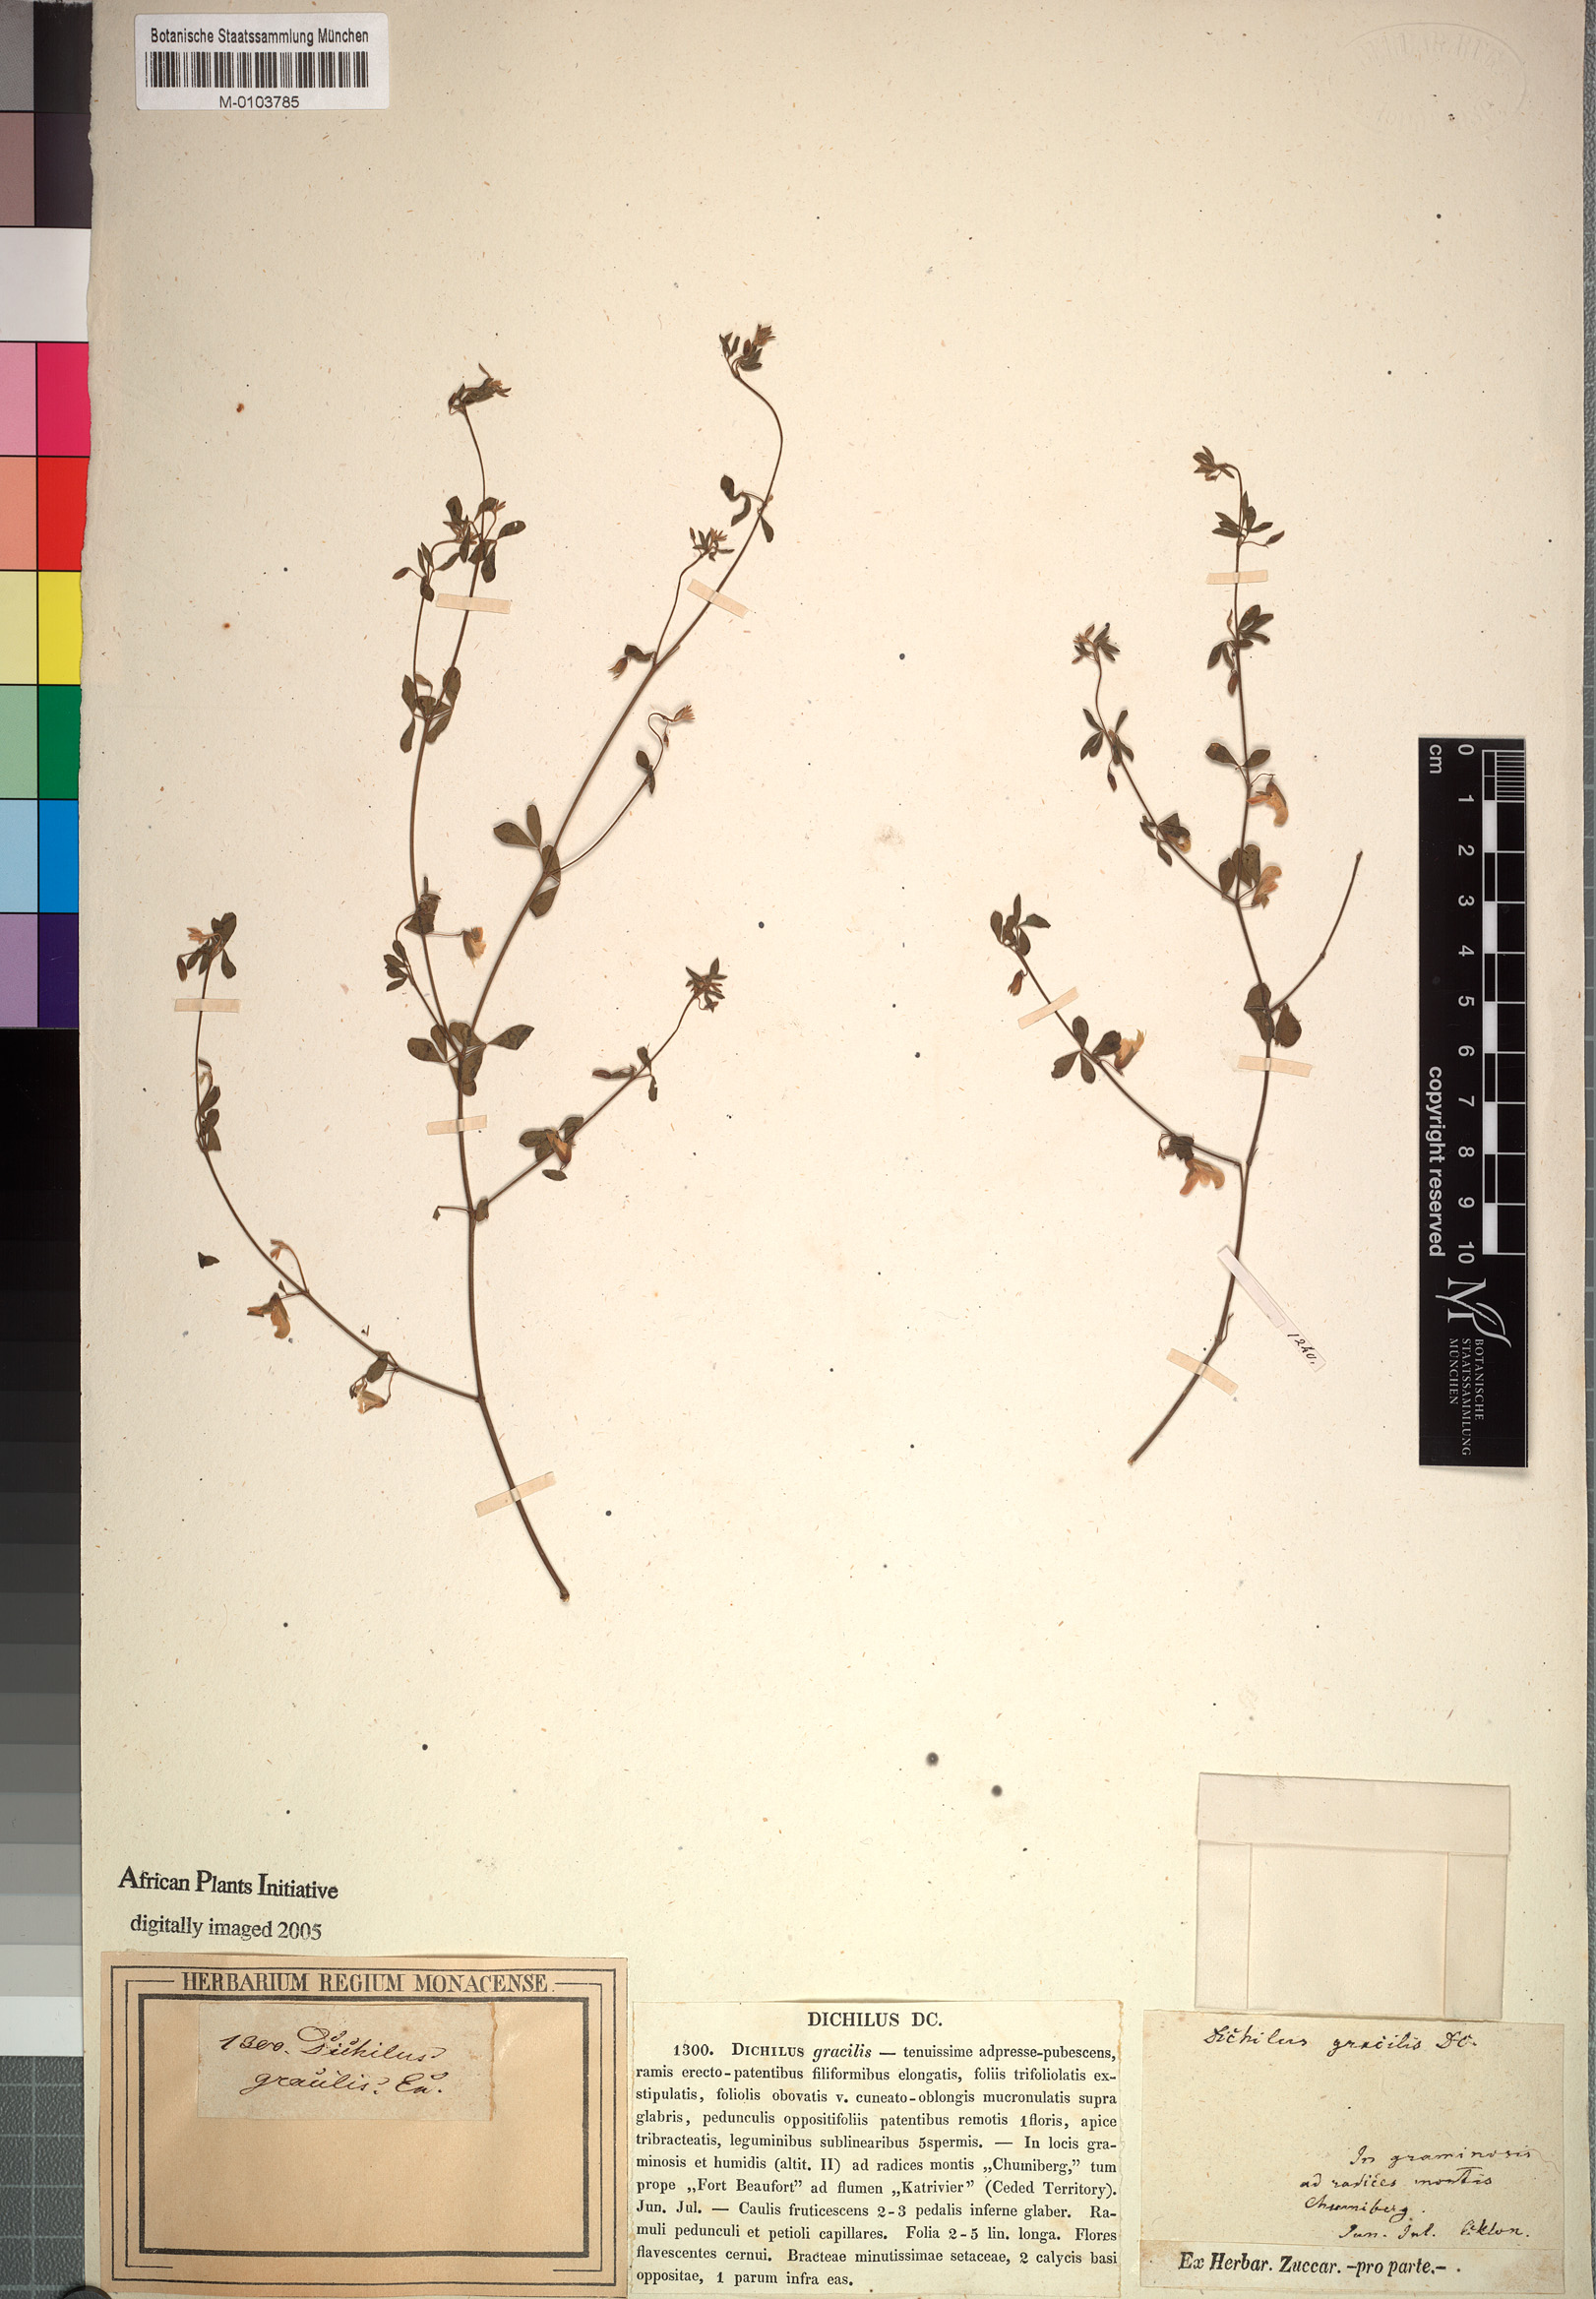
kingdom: Plantae
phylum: Tracheophyta
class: Magnoliopsida
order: Fabales
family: Fabaceae
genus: Dichilus
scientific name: Dichilus gracilis
